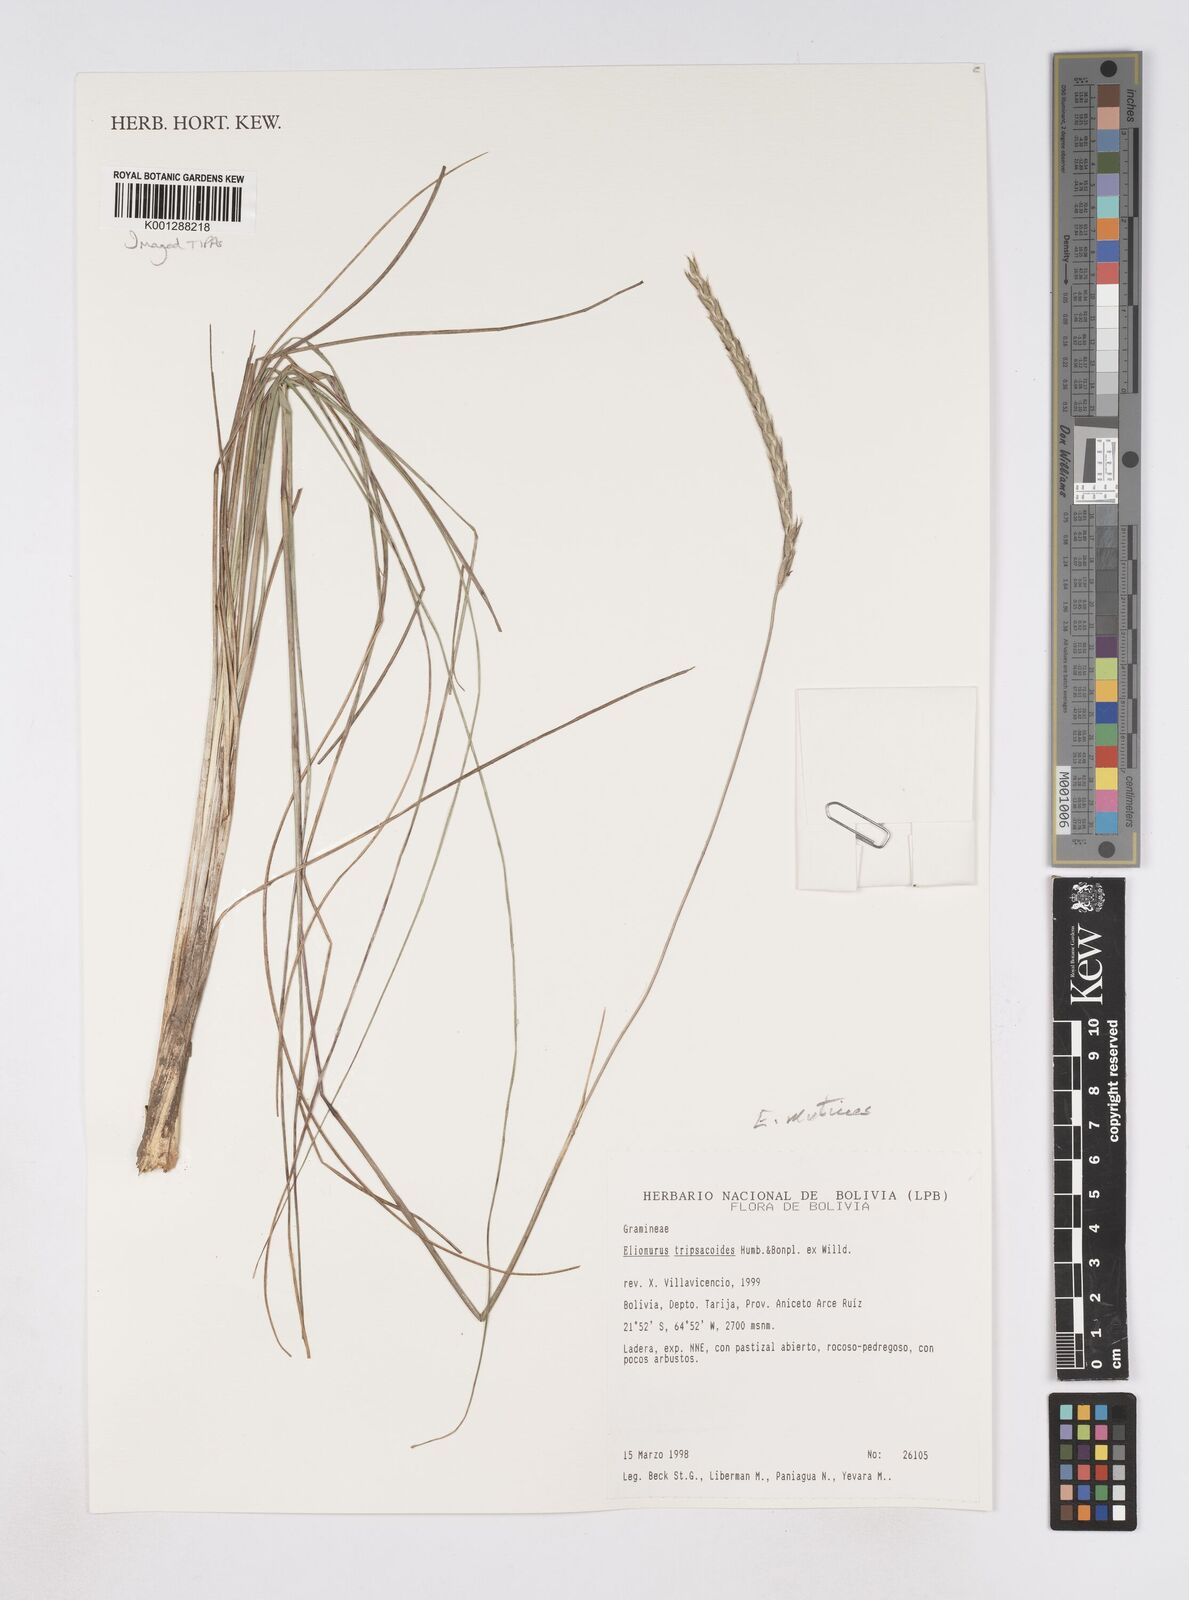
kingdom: Plantae
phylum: Tracheophyta
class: Liliopsida
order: Poales
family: Poaceae
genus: Elionurus
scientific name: Elionurus muticus
